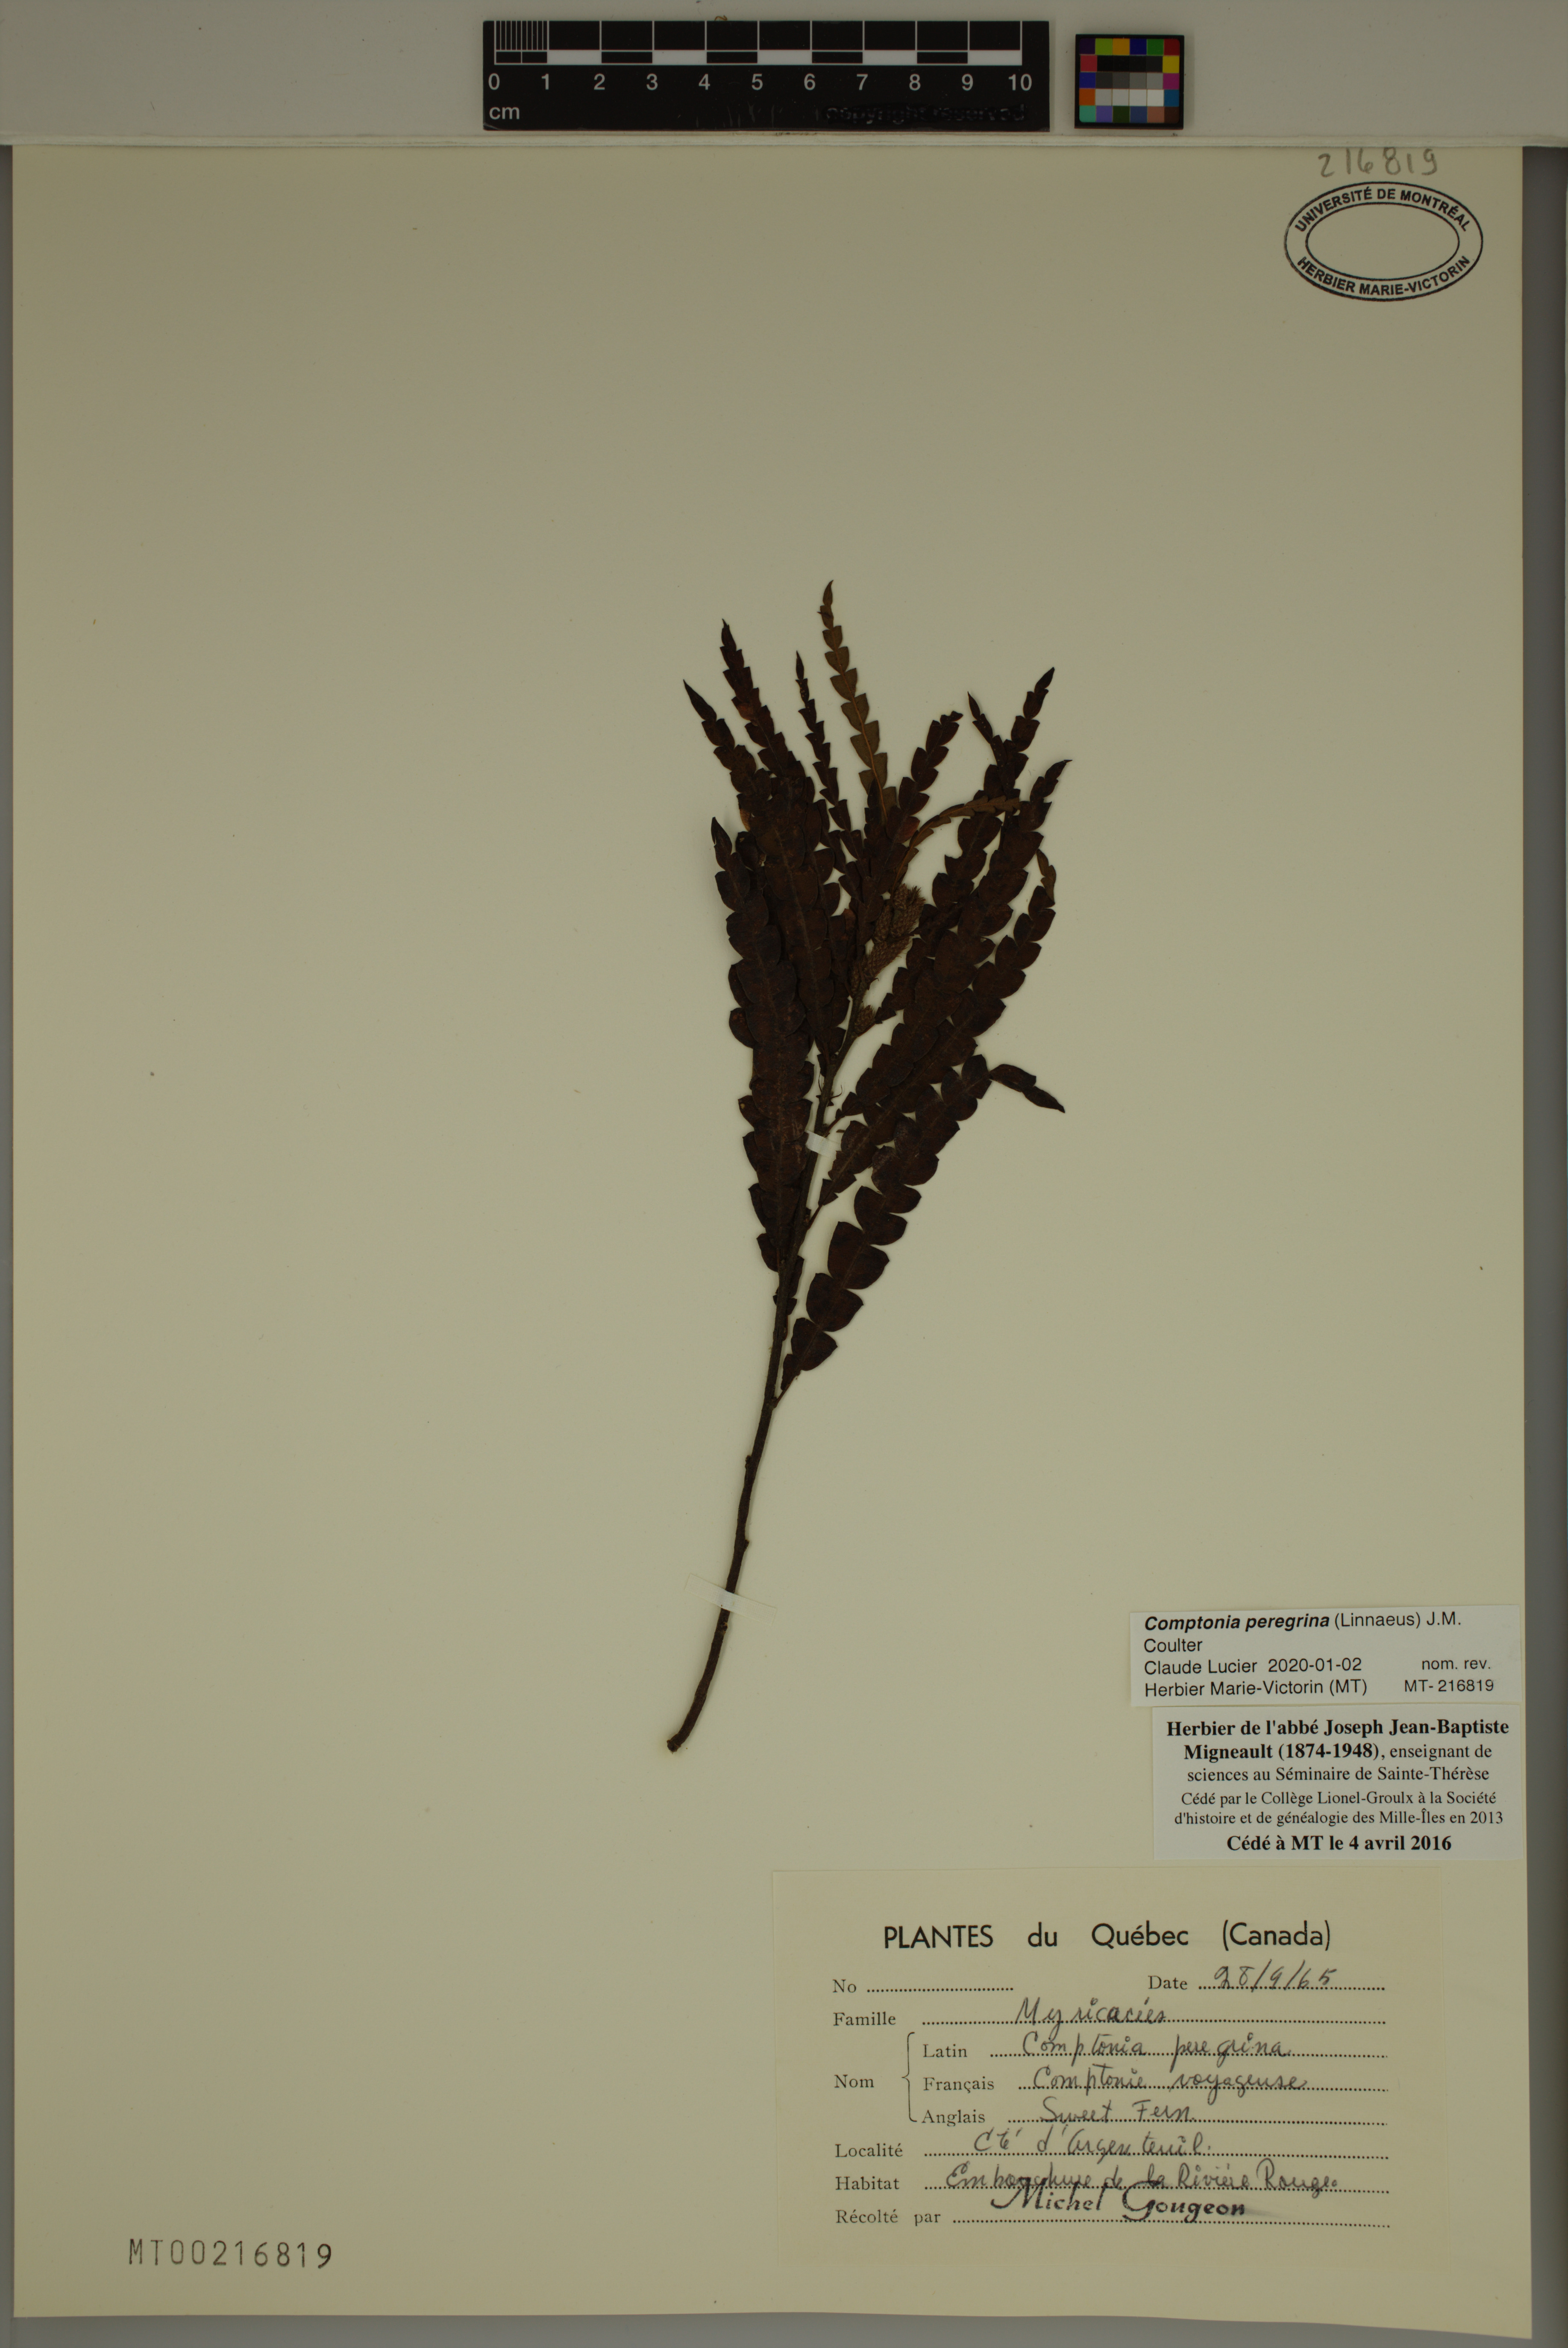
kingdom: Plantae
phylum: Tracheophyta
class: Magnoliopsida
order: Fagales
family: Myricaceae
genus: Comptonia
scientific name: Comptonia peregrina
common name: Sweet-fern
